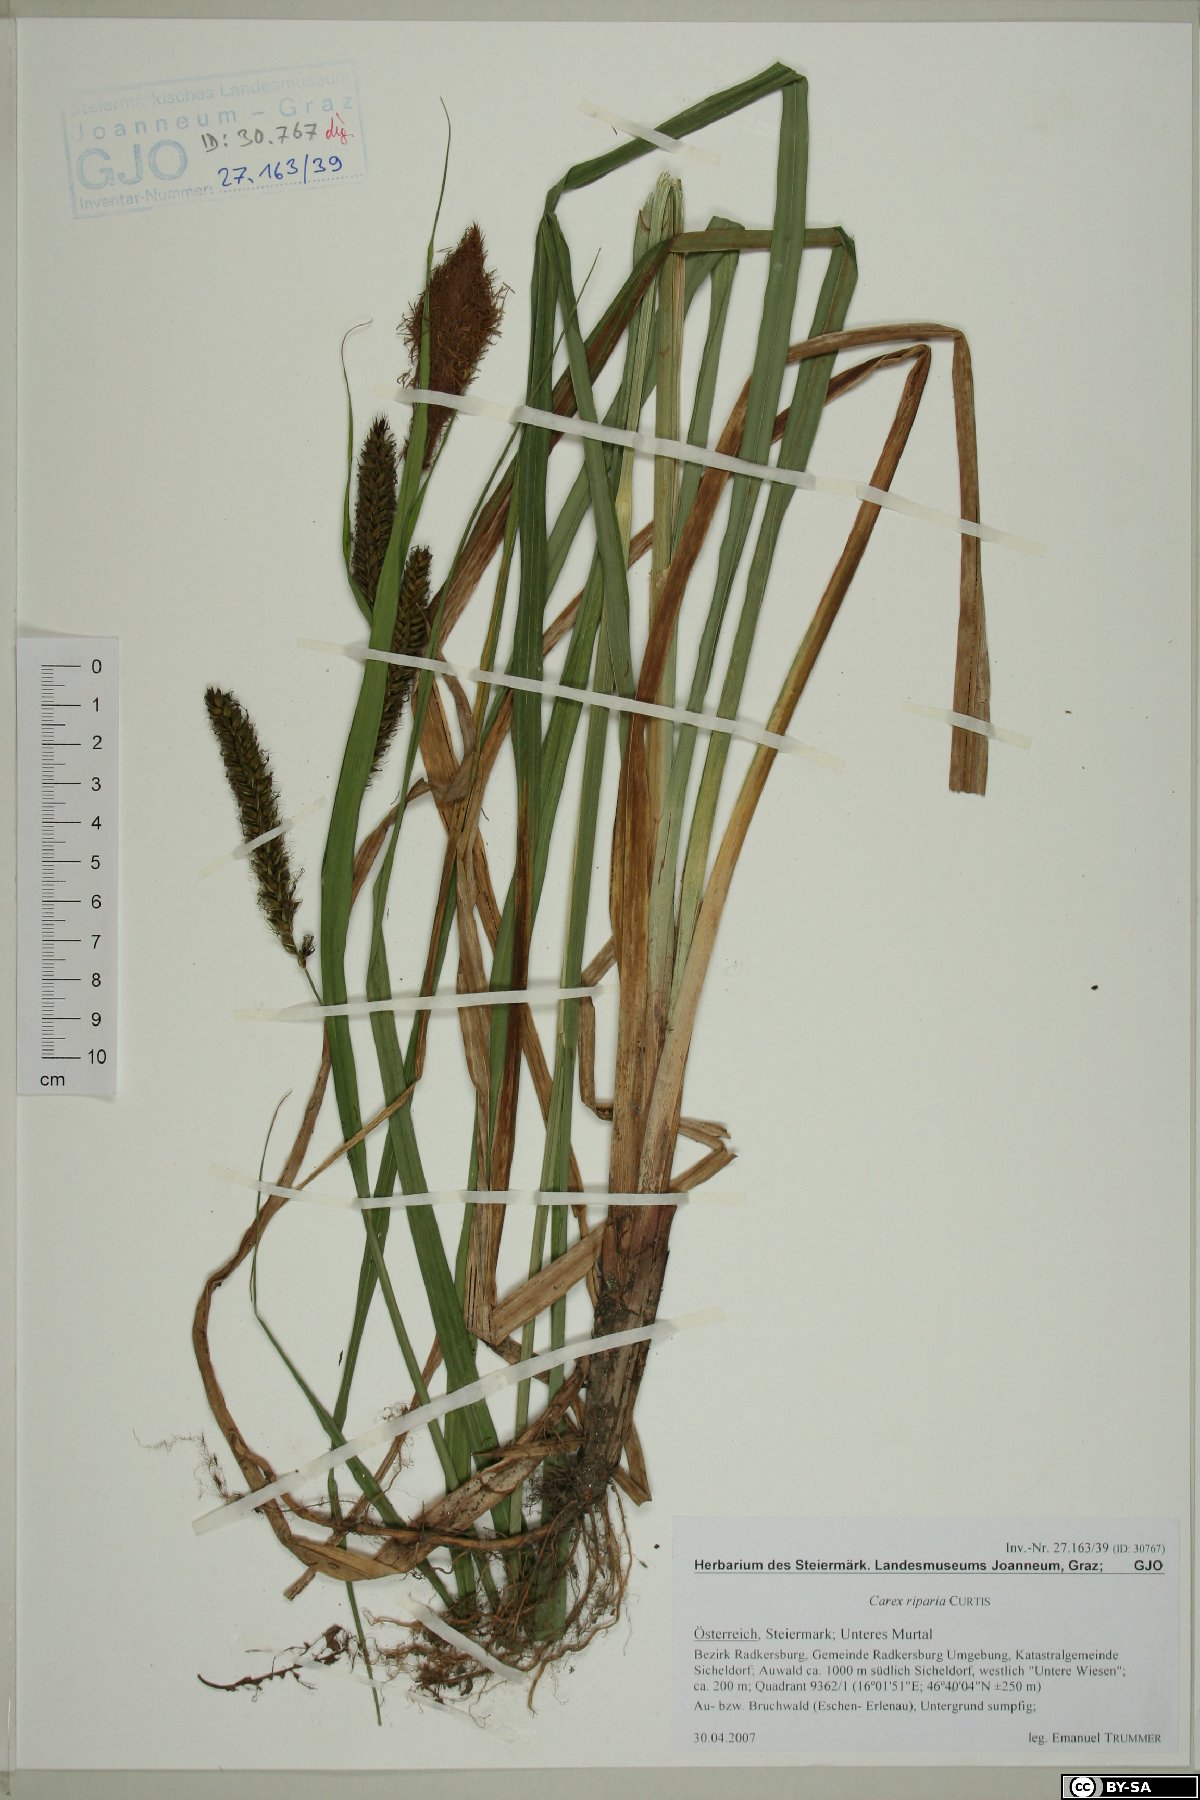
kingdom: Plantae
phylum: Tracheophyta
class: Liliopsida
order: Poales
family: Cyperaceae
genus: Carex
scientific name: Carex riparia
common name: Greater pond-sedge
